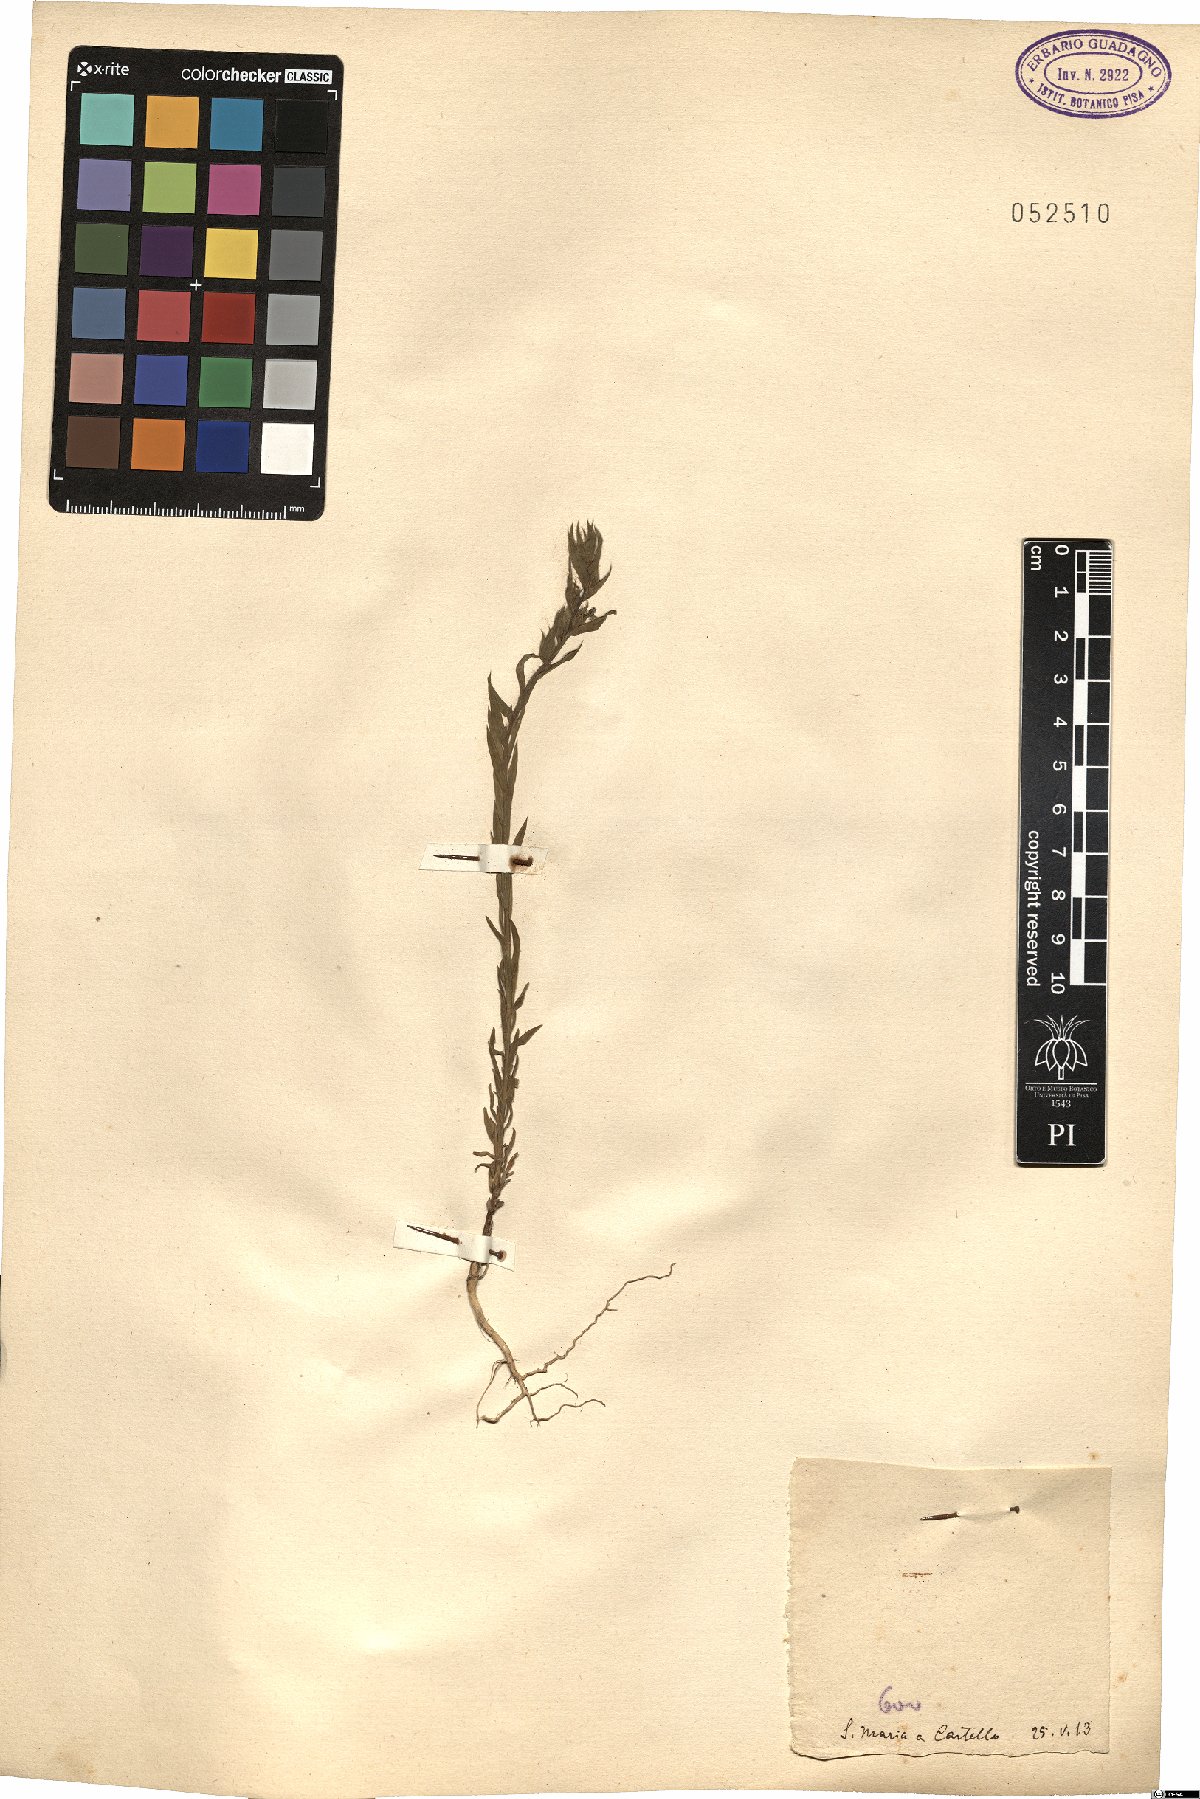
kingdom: Plantae
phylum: Tracheophyta
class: Magnoliopsida
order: Malpighiales
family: Linaceae
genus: Linum
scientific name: Linum
